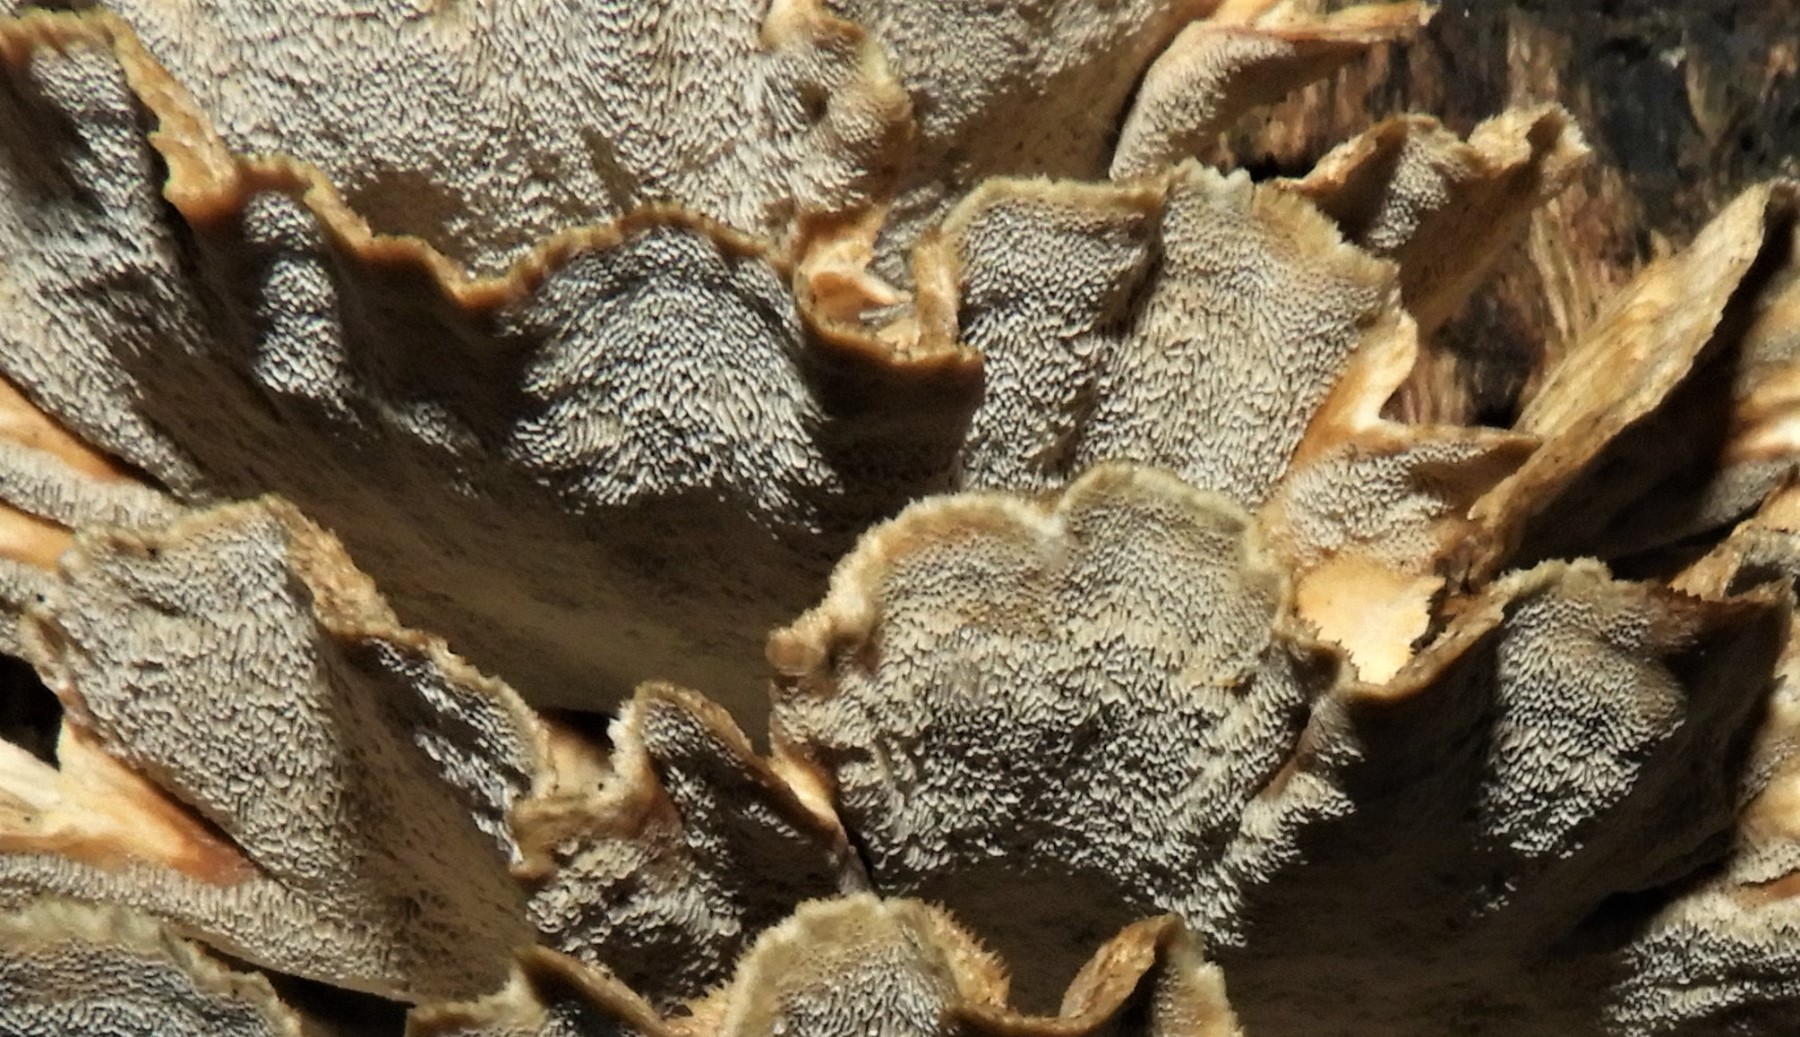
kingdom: Fungi
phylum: Basidiomycota
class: Agaricomycetes
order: Polyporales
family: Phanerochaetaceae
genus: Bjerkandera
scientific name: Bjerkandera adusta
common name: sveden sodporesvamp
